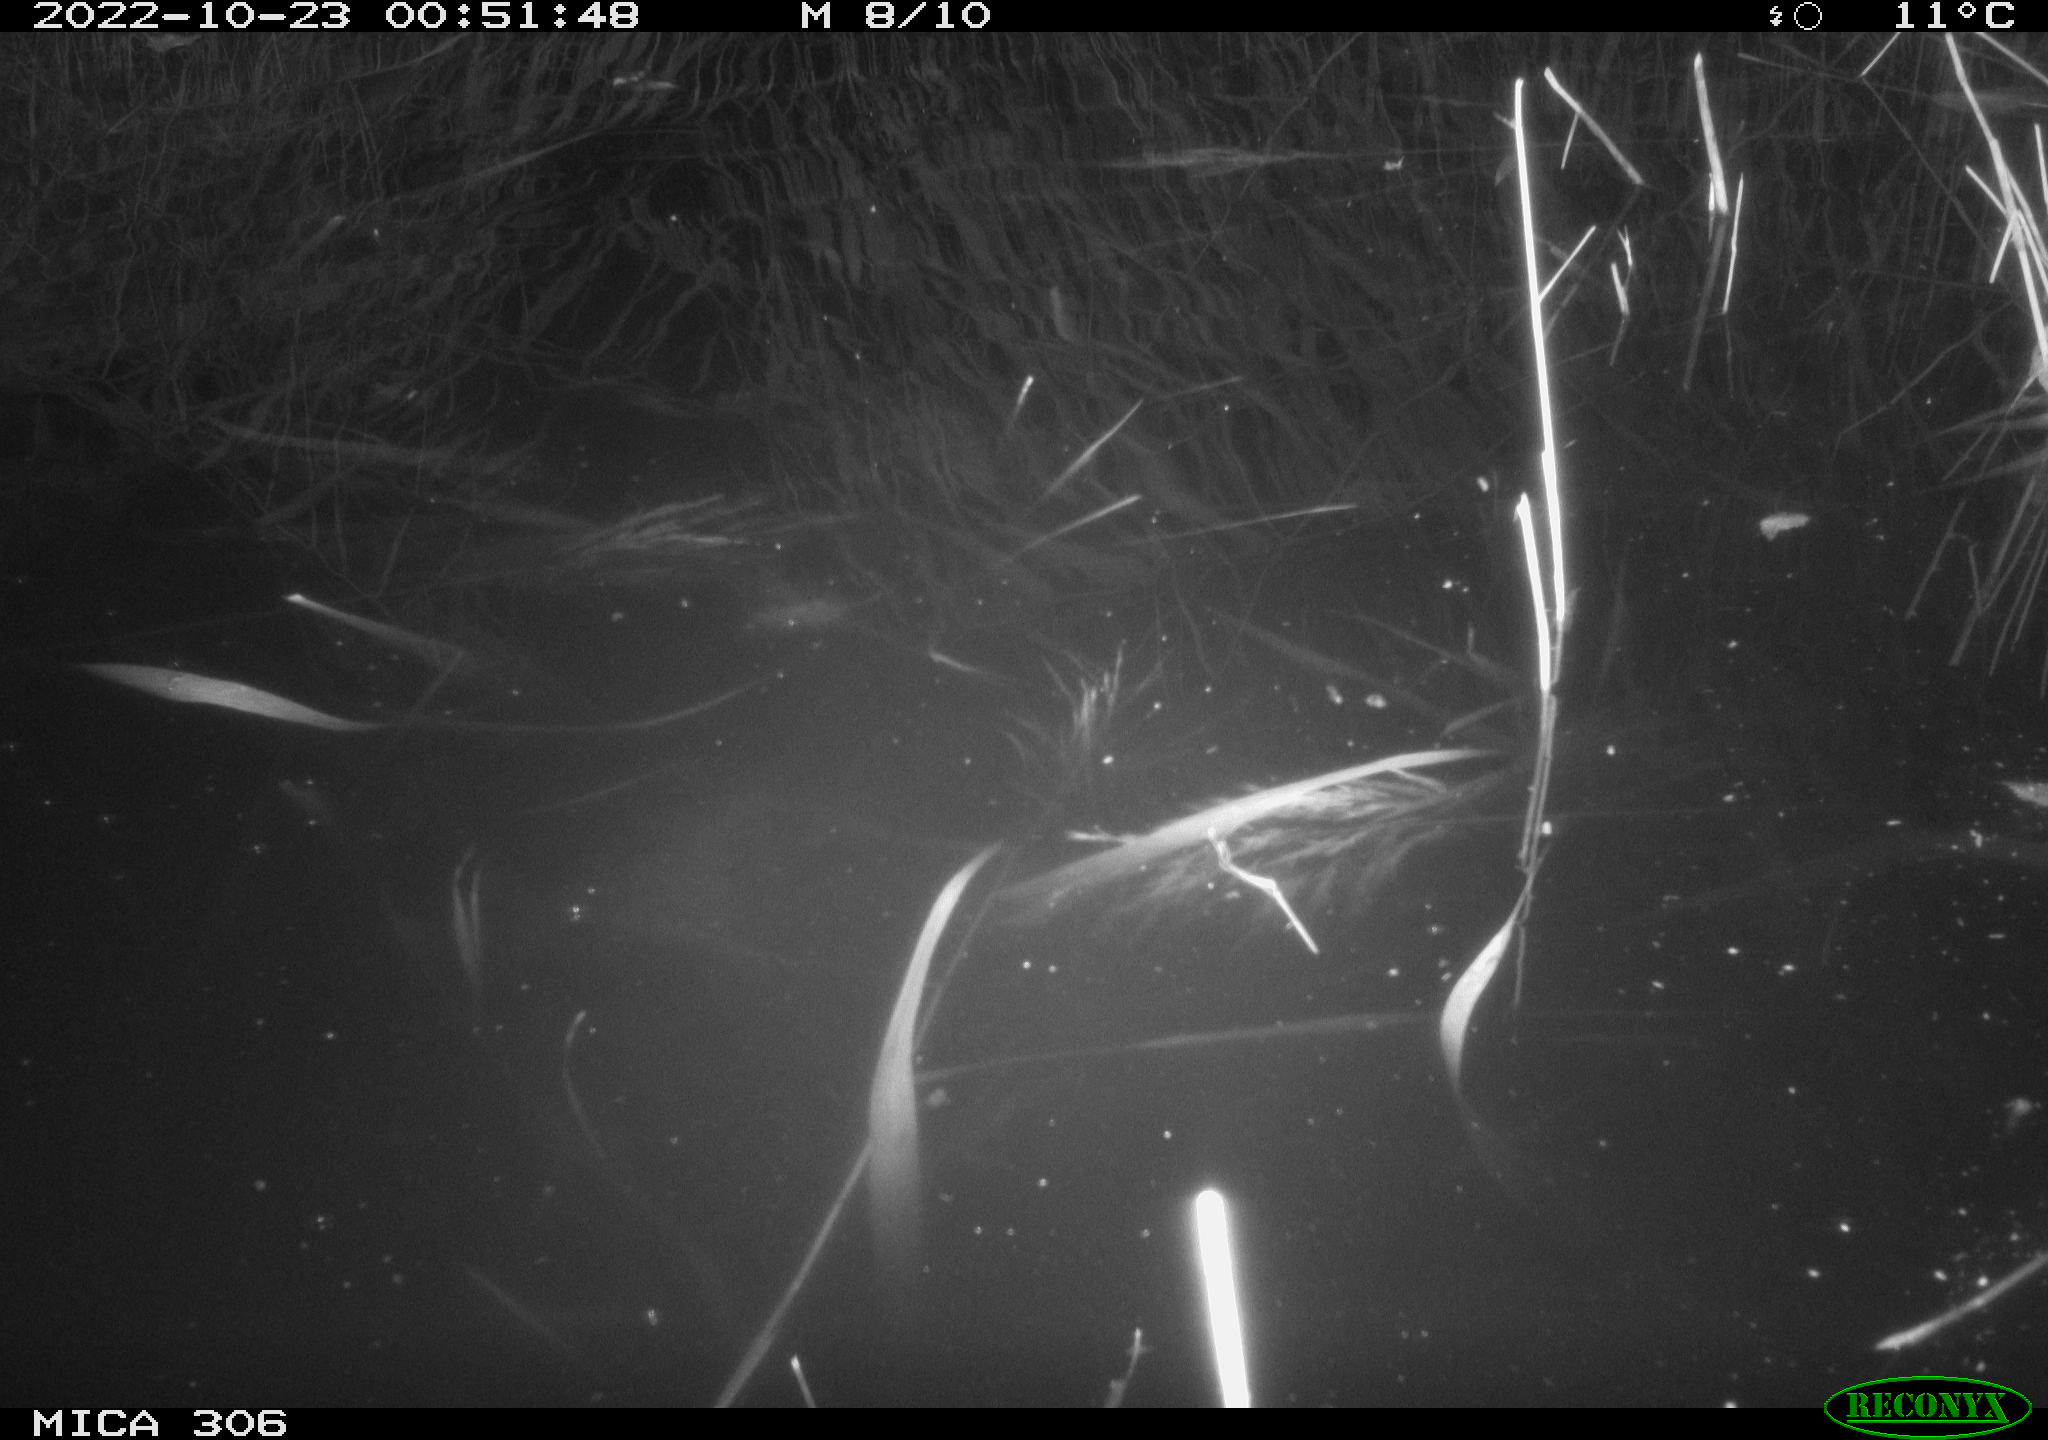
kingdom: Animalia
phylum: Chordata
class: Mammalia
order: Rodentia
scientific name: Rodentia
